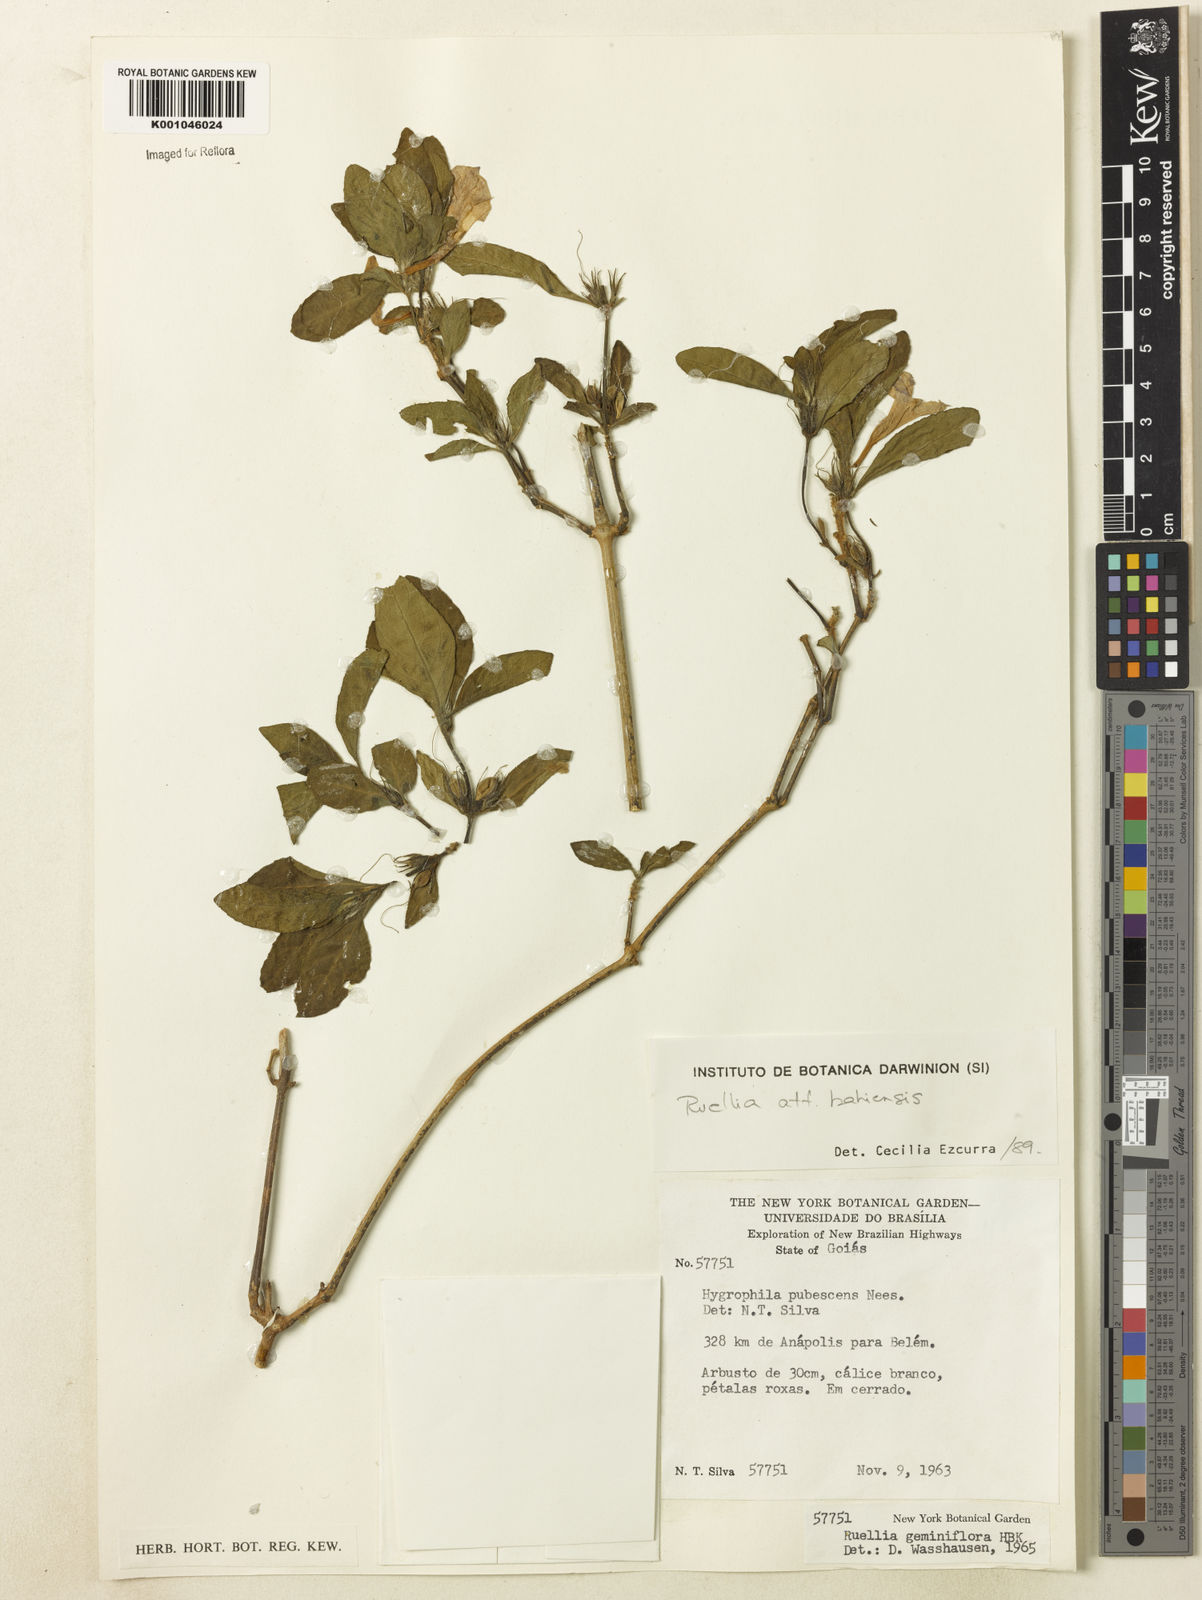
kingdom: Plantae
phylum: Tracheophyta
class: Magnoliopsida
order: Lamiales
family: Acanthaceae
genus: Ruellia
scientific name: Ruellia geminiflora
